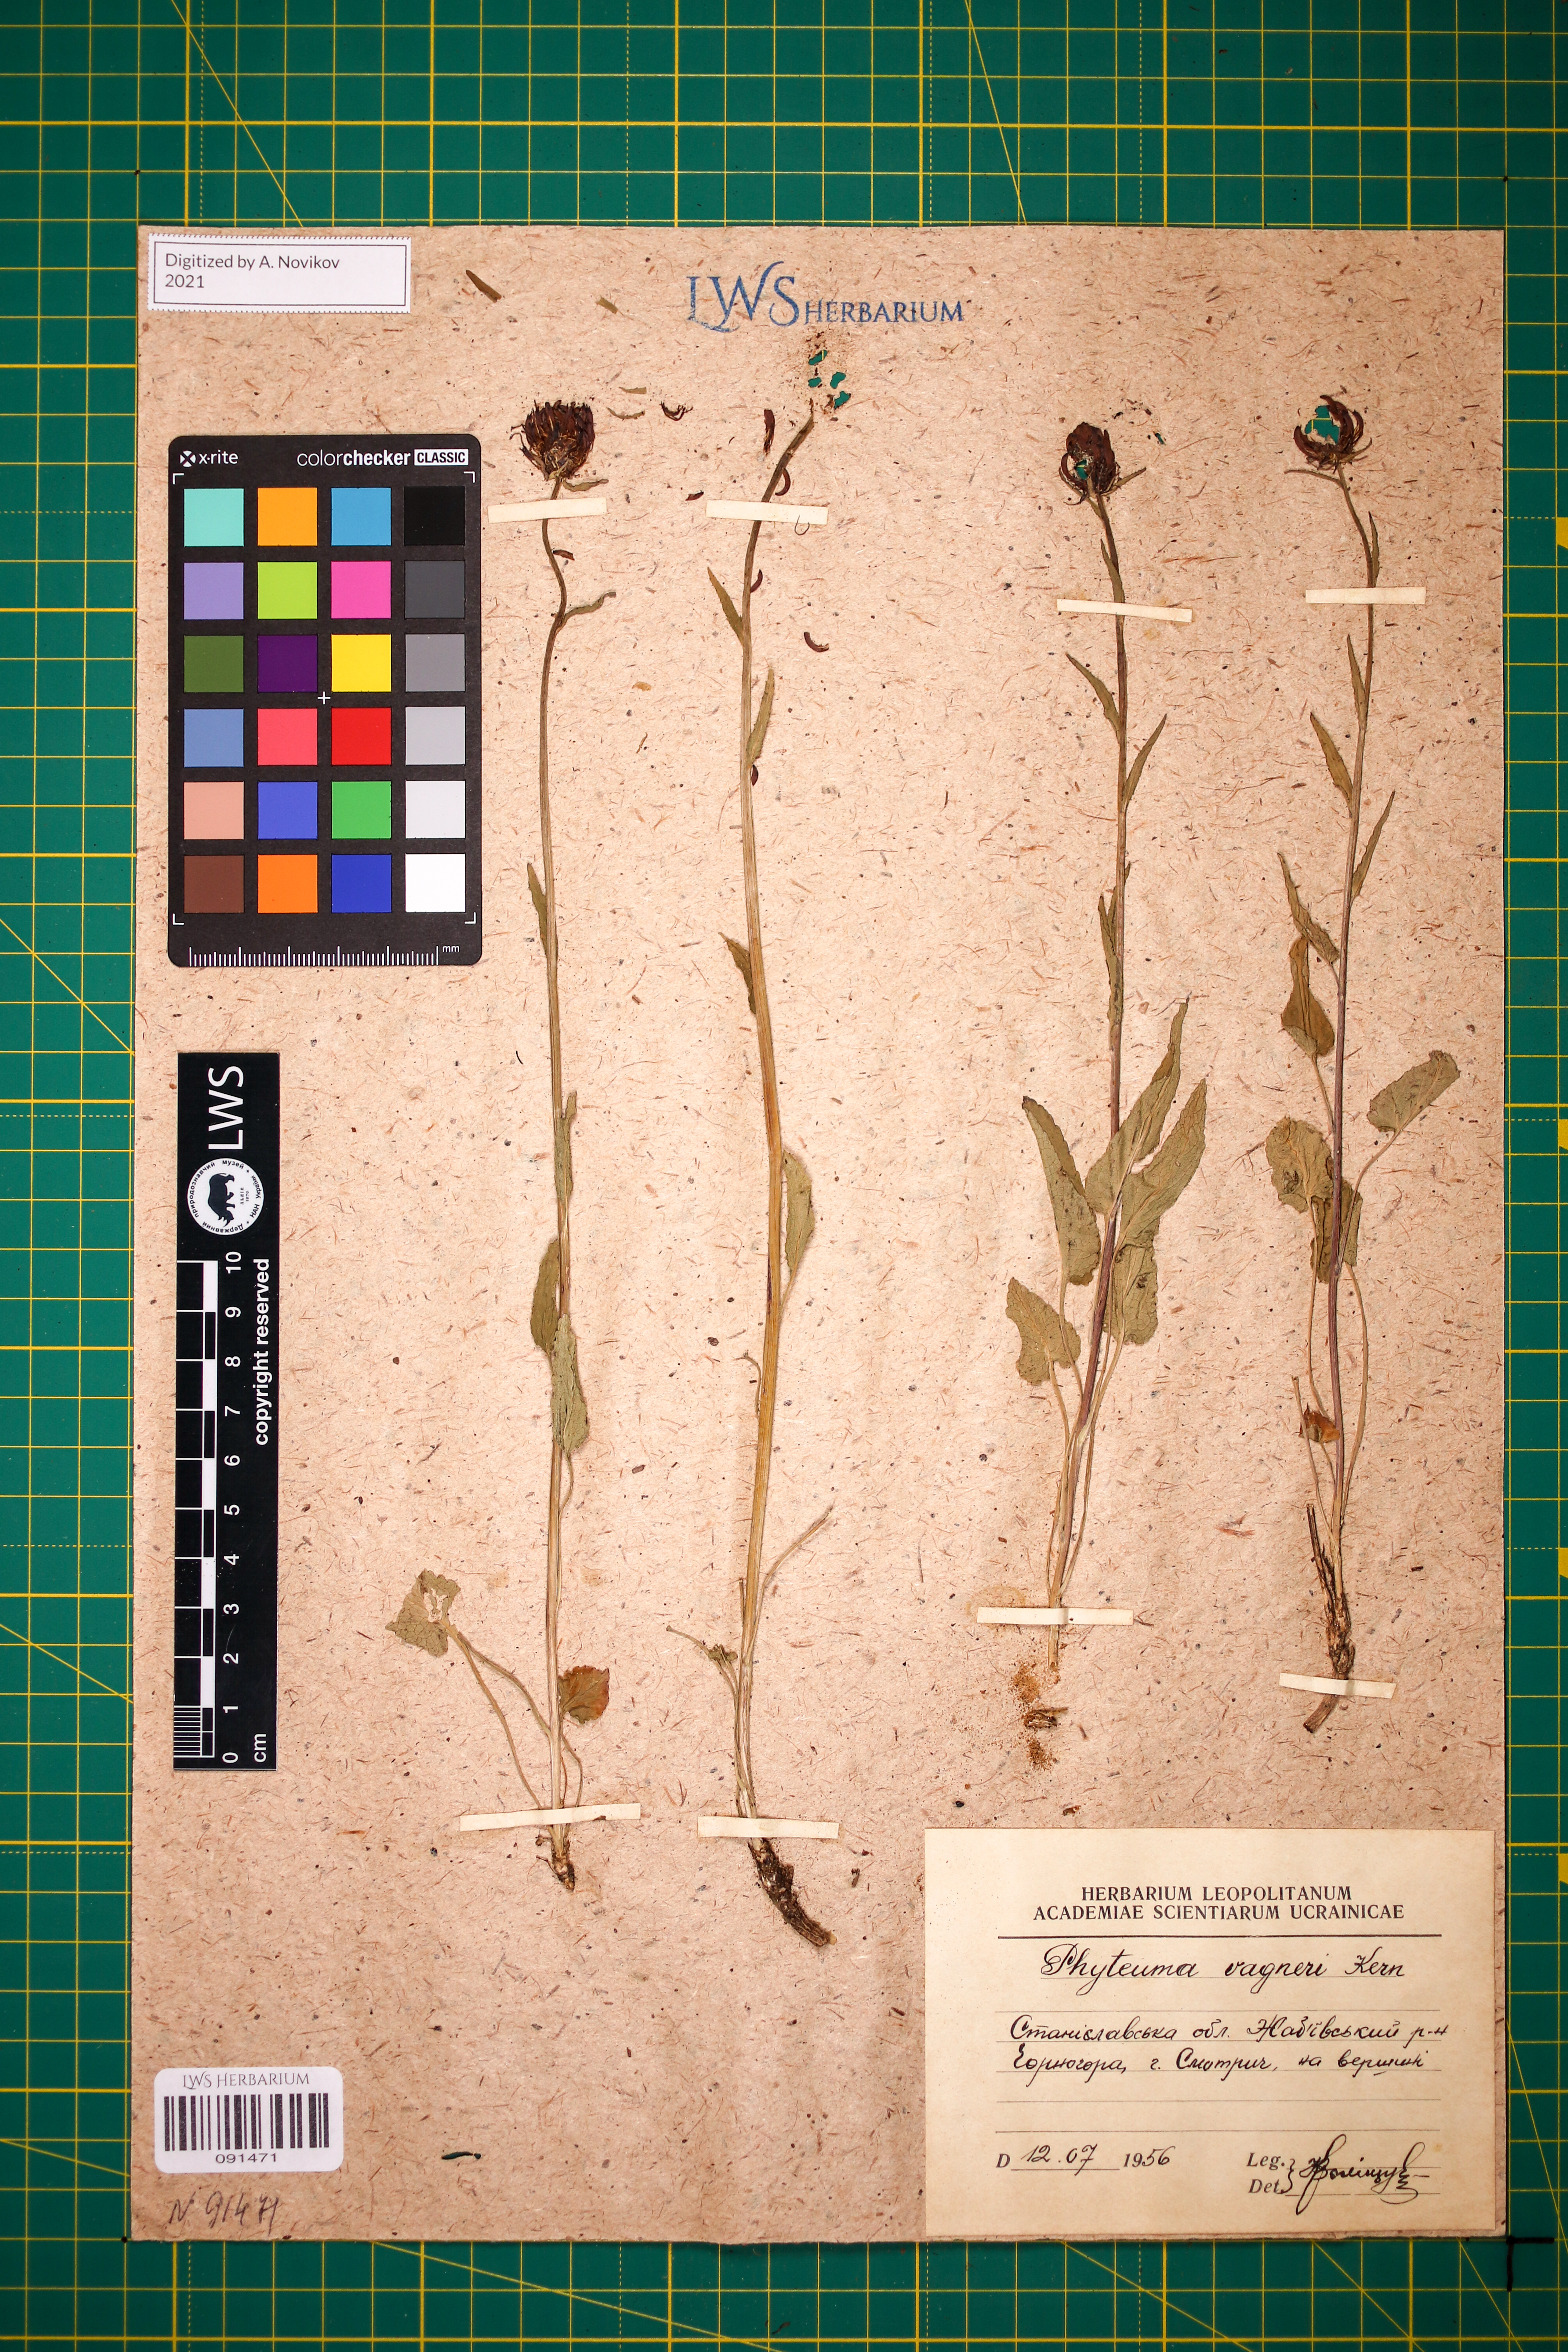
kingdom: Plantae
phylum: Tracheophyta
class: Magnoliopsida
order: Asterales
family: Campanulaceae
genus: Phyteuma
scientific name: Phyteuma vagneri
